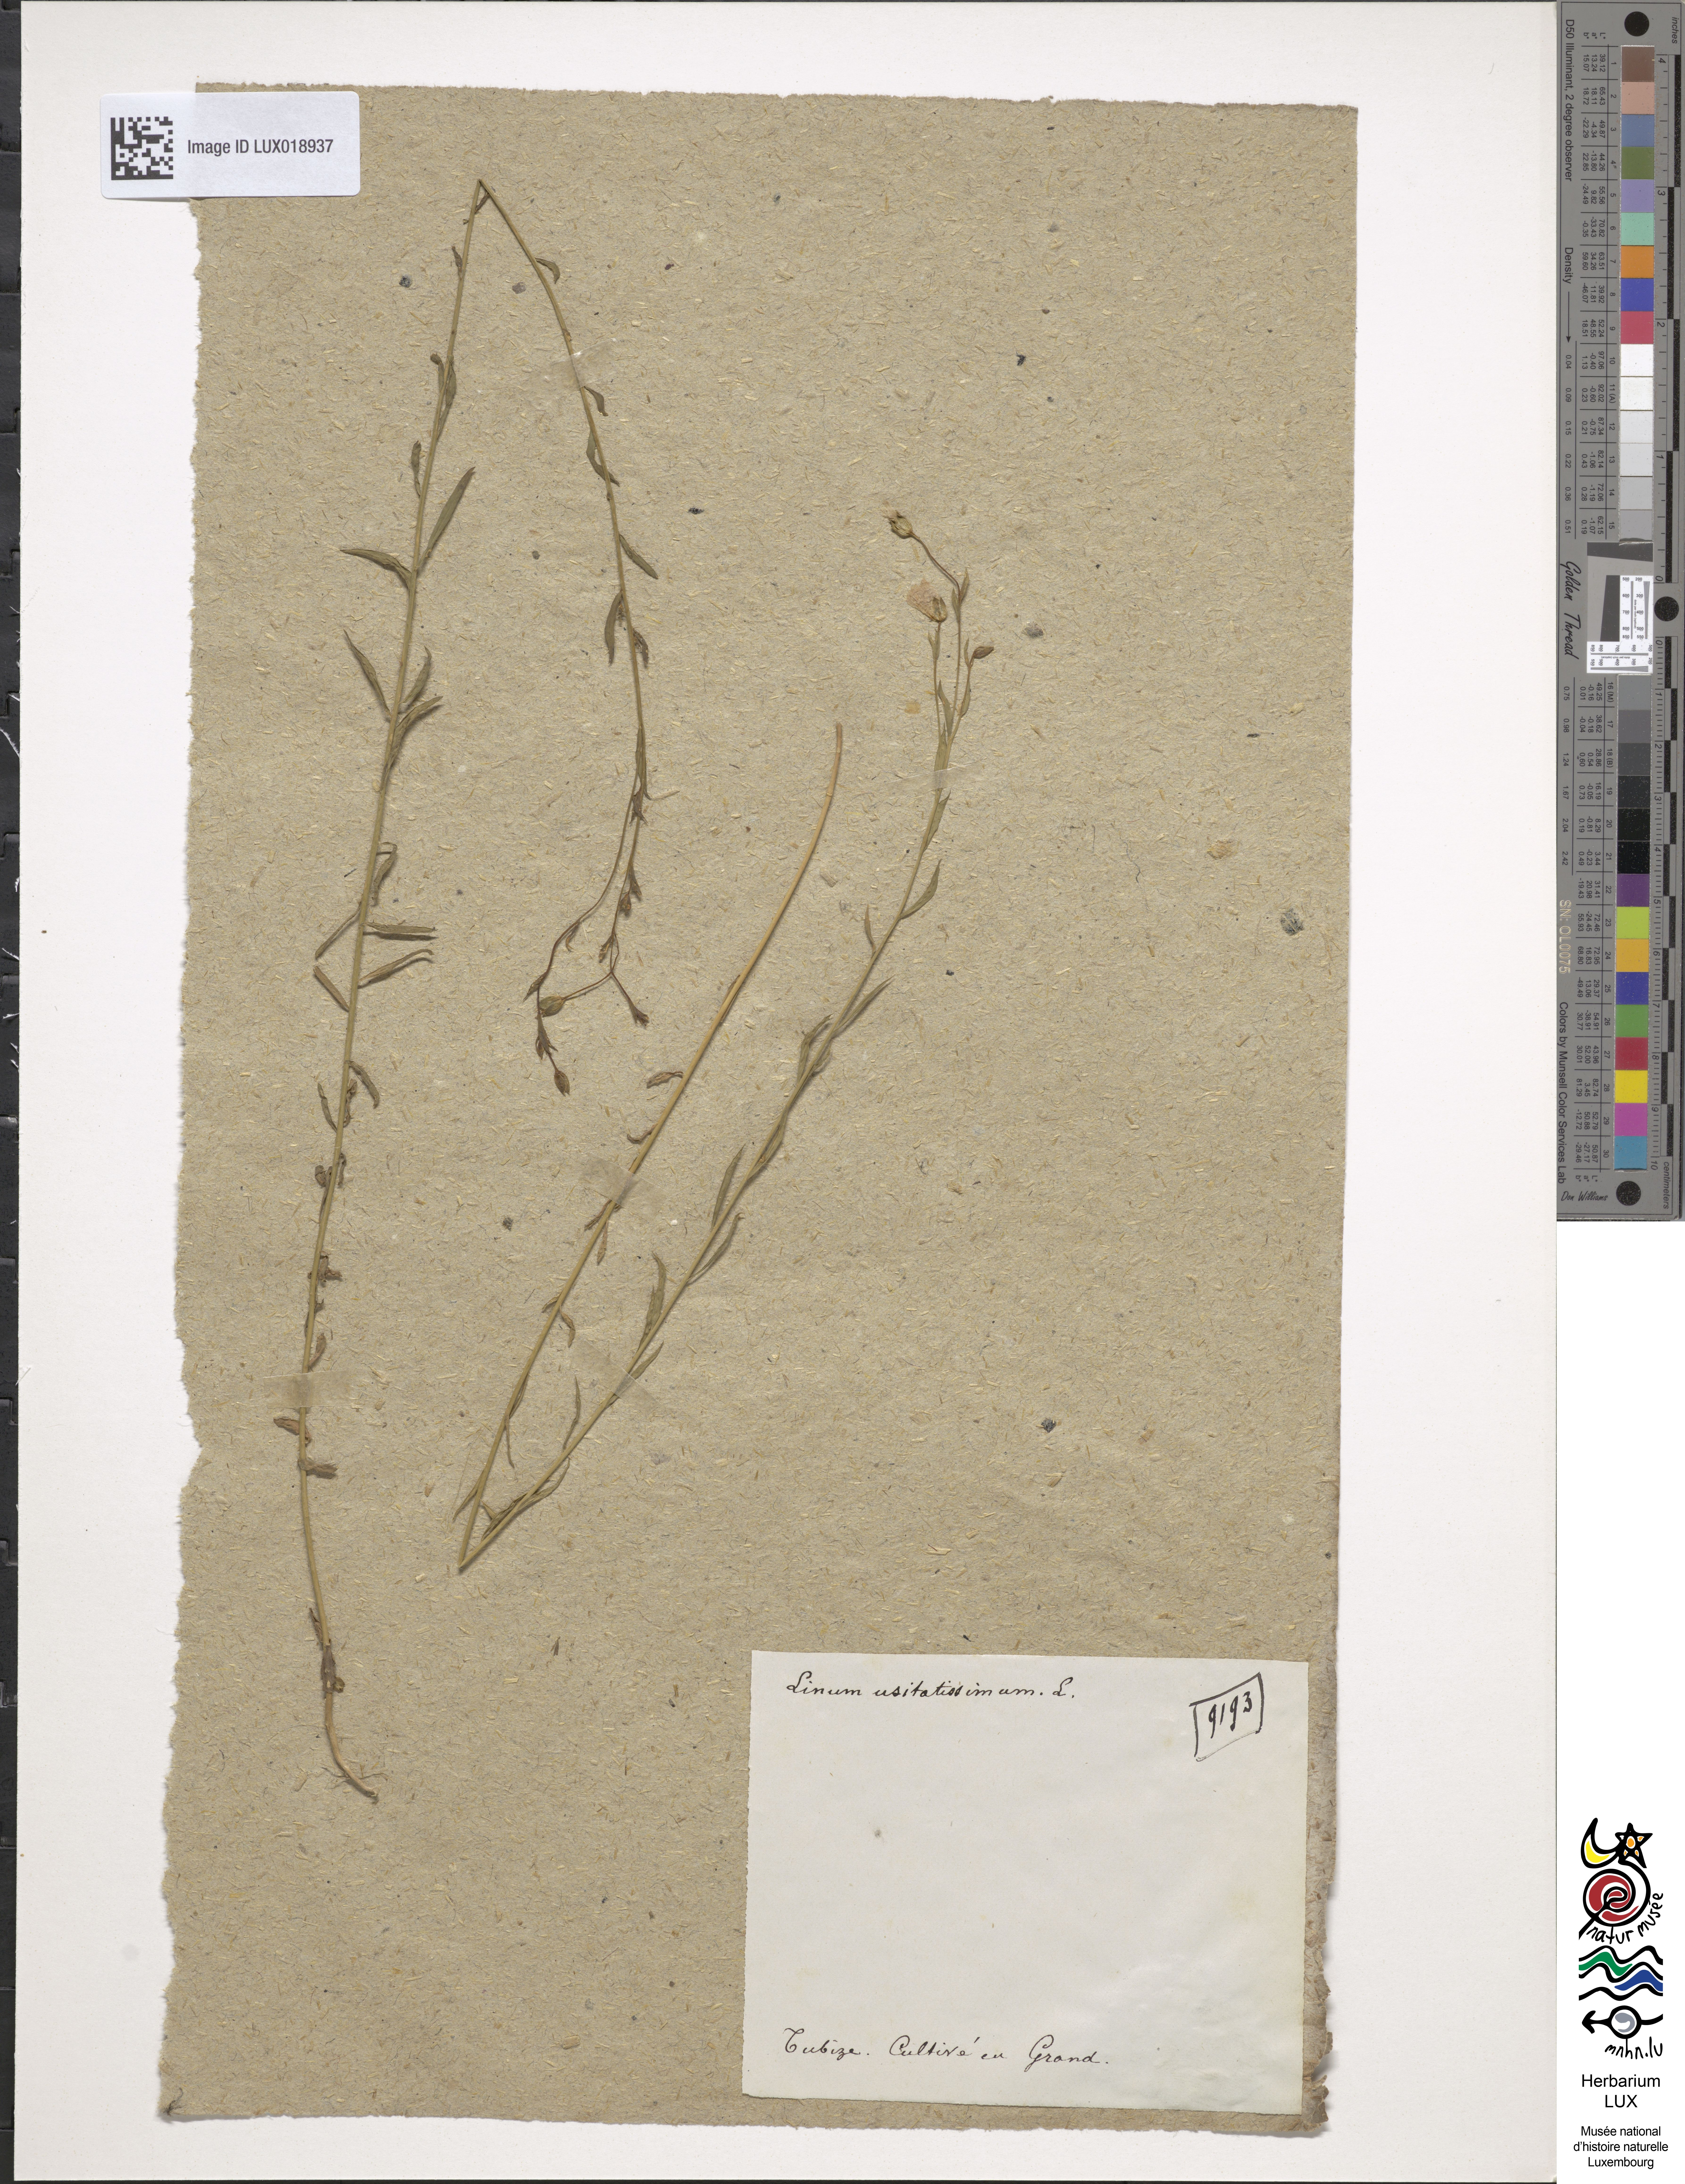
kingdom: Plantae
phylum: Tracheophyta
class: Magnoliopsida
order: Malpighiales
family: Linaceae
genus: Linum
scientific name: Linum usitatissimum
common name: Flax
